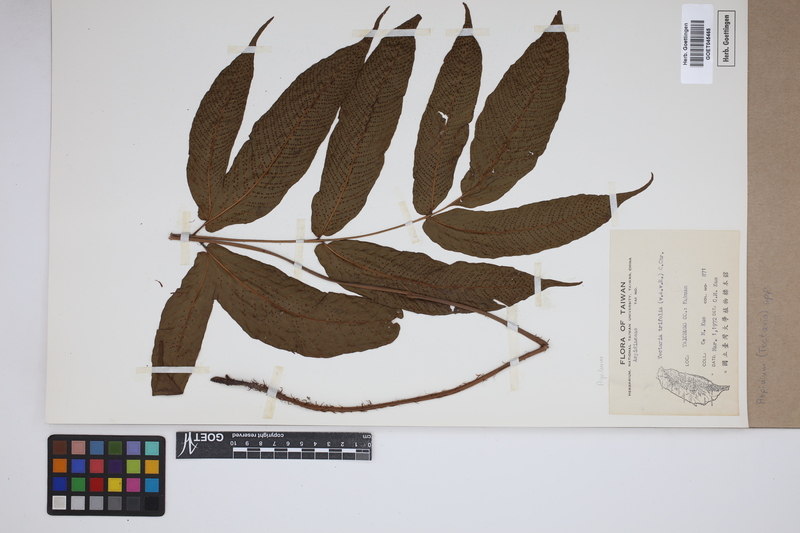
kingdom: Plantae
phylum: Tracheophyta
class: Polypodiopsida
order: Polypodiales
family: Tectariaceae
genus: Tectaria
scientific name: Tectaria Aspidium spec
